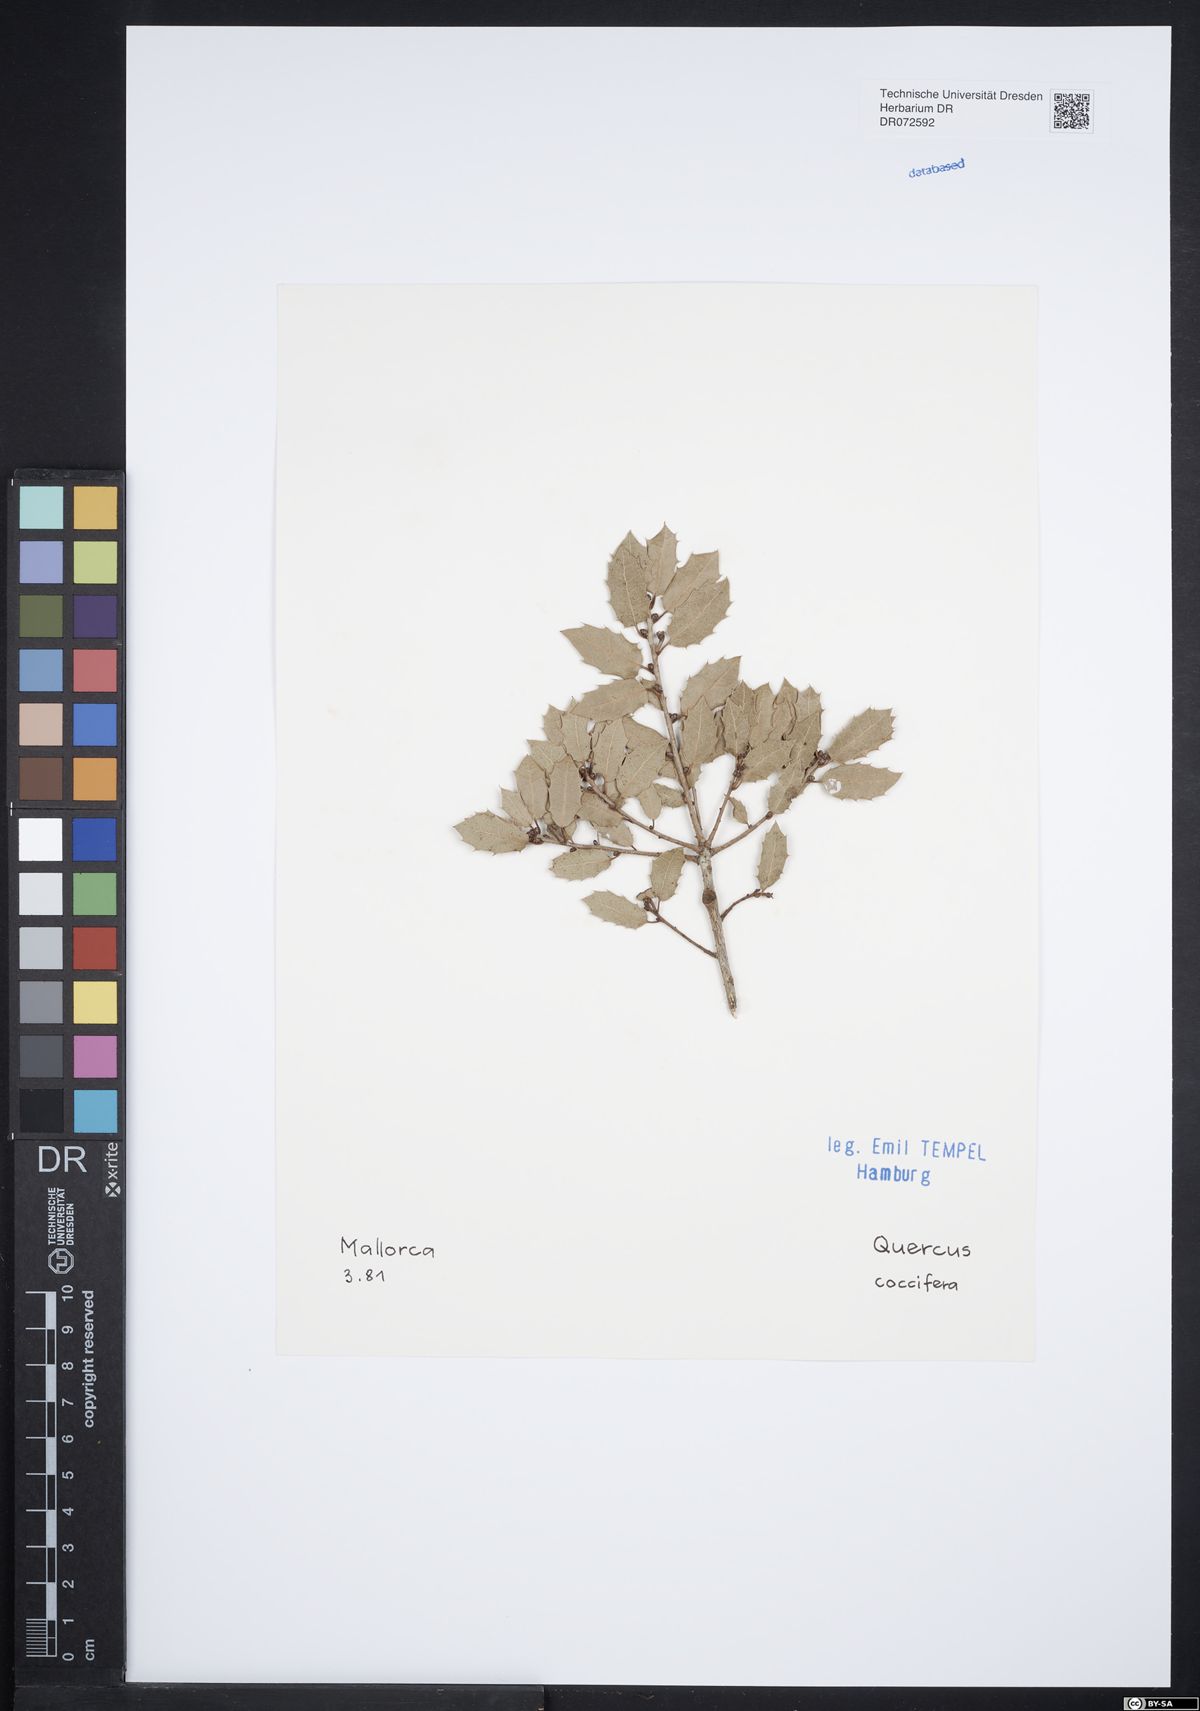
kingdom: Plantae
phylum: Tracheophyta
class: Magnoliopsida
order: Fagales
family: Fagaceae
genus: Quercus
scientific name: Quercus coccifera
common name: Kermes oak
